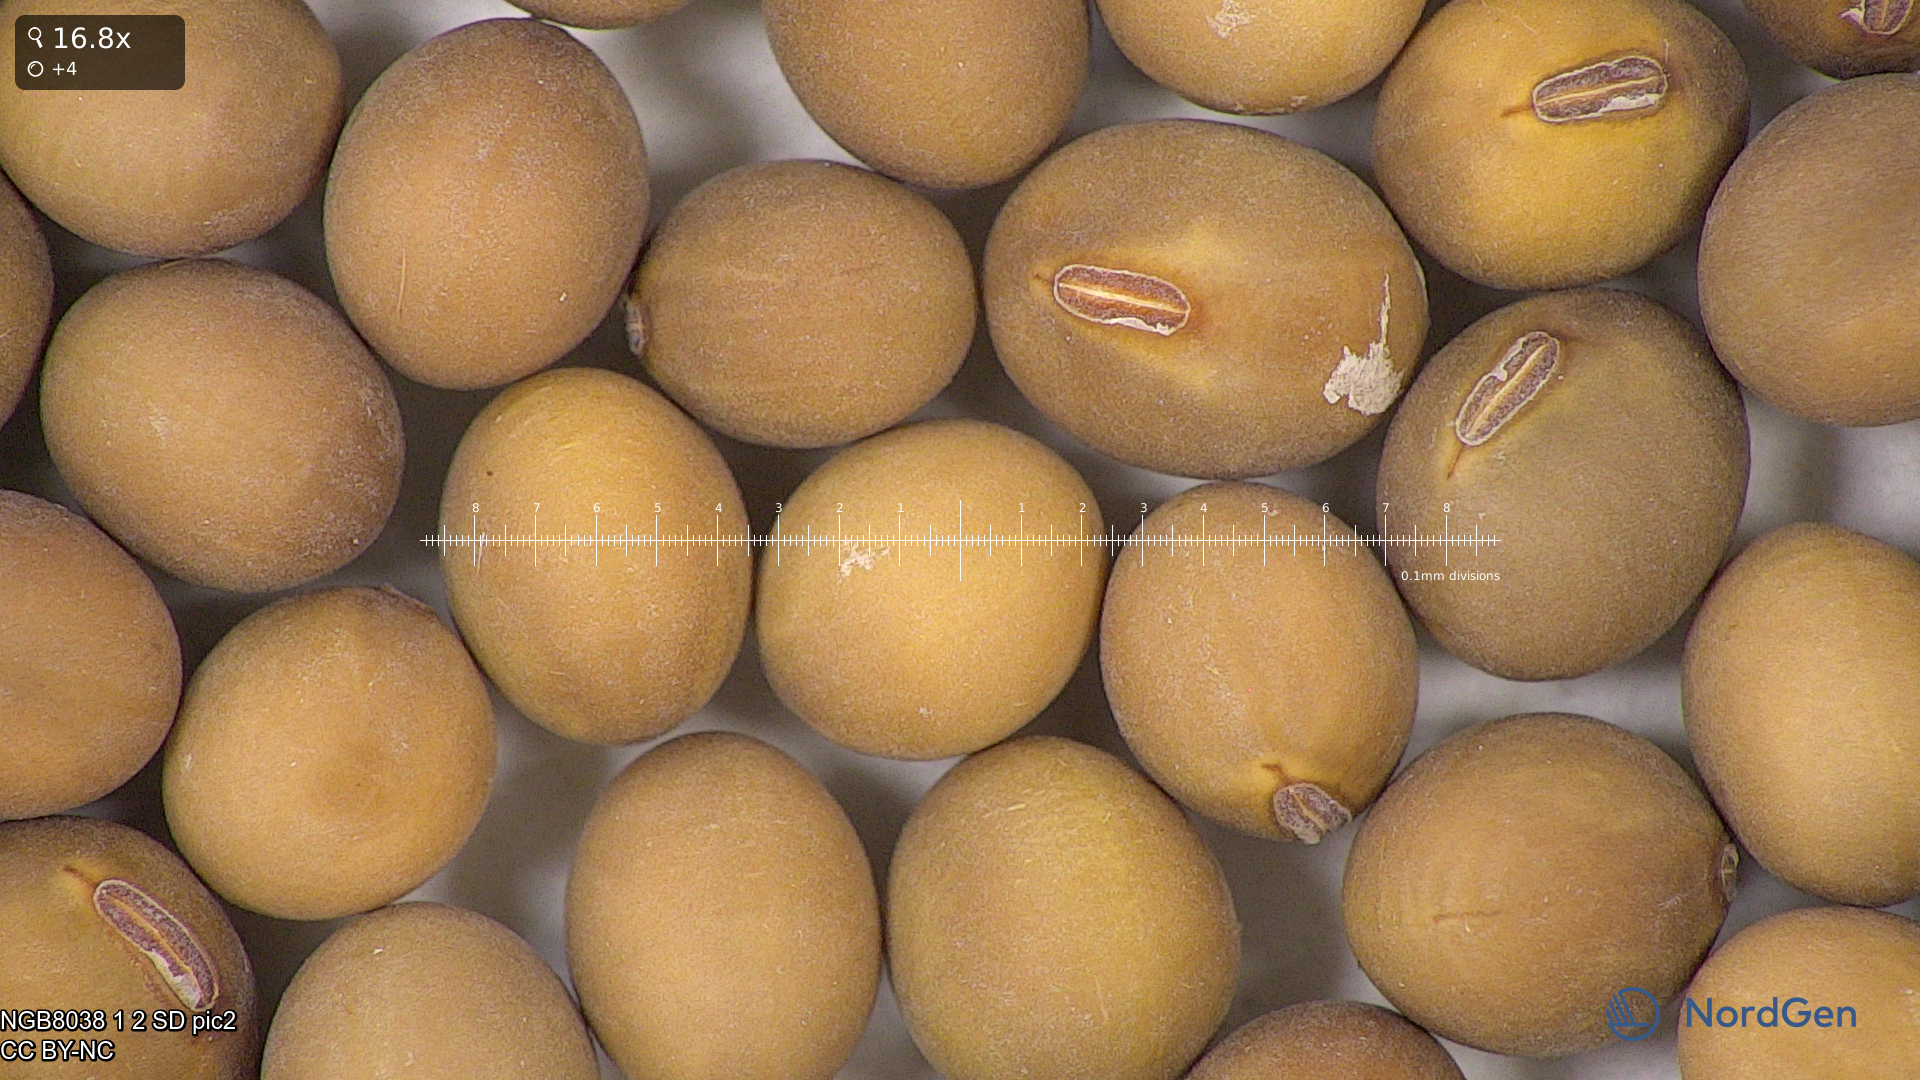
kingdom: Plantae
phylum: Tracheophyta
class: Magnoliopsida
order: Fabales
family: Fabaceae
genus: Glycine
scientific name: Glycine max
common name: Soya-bean
